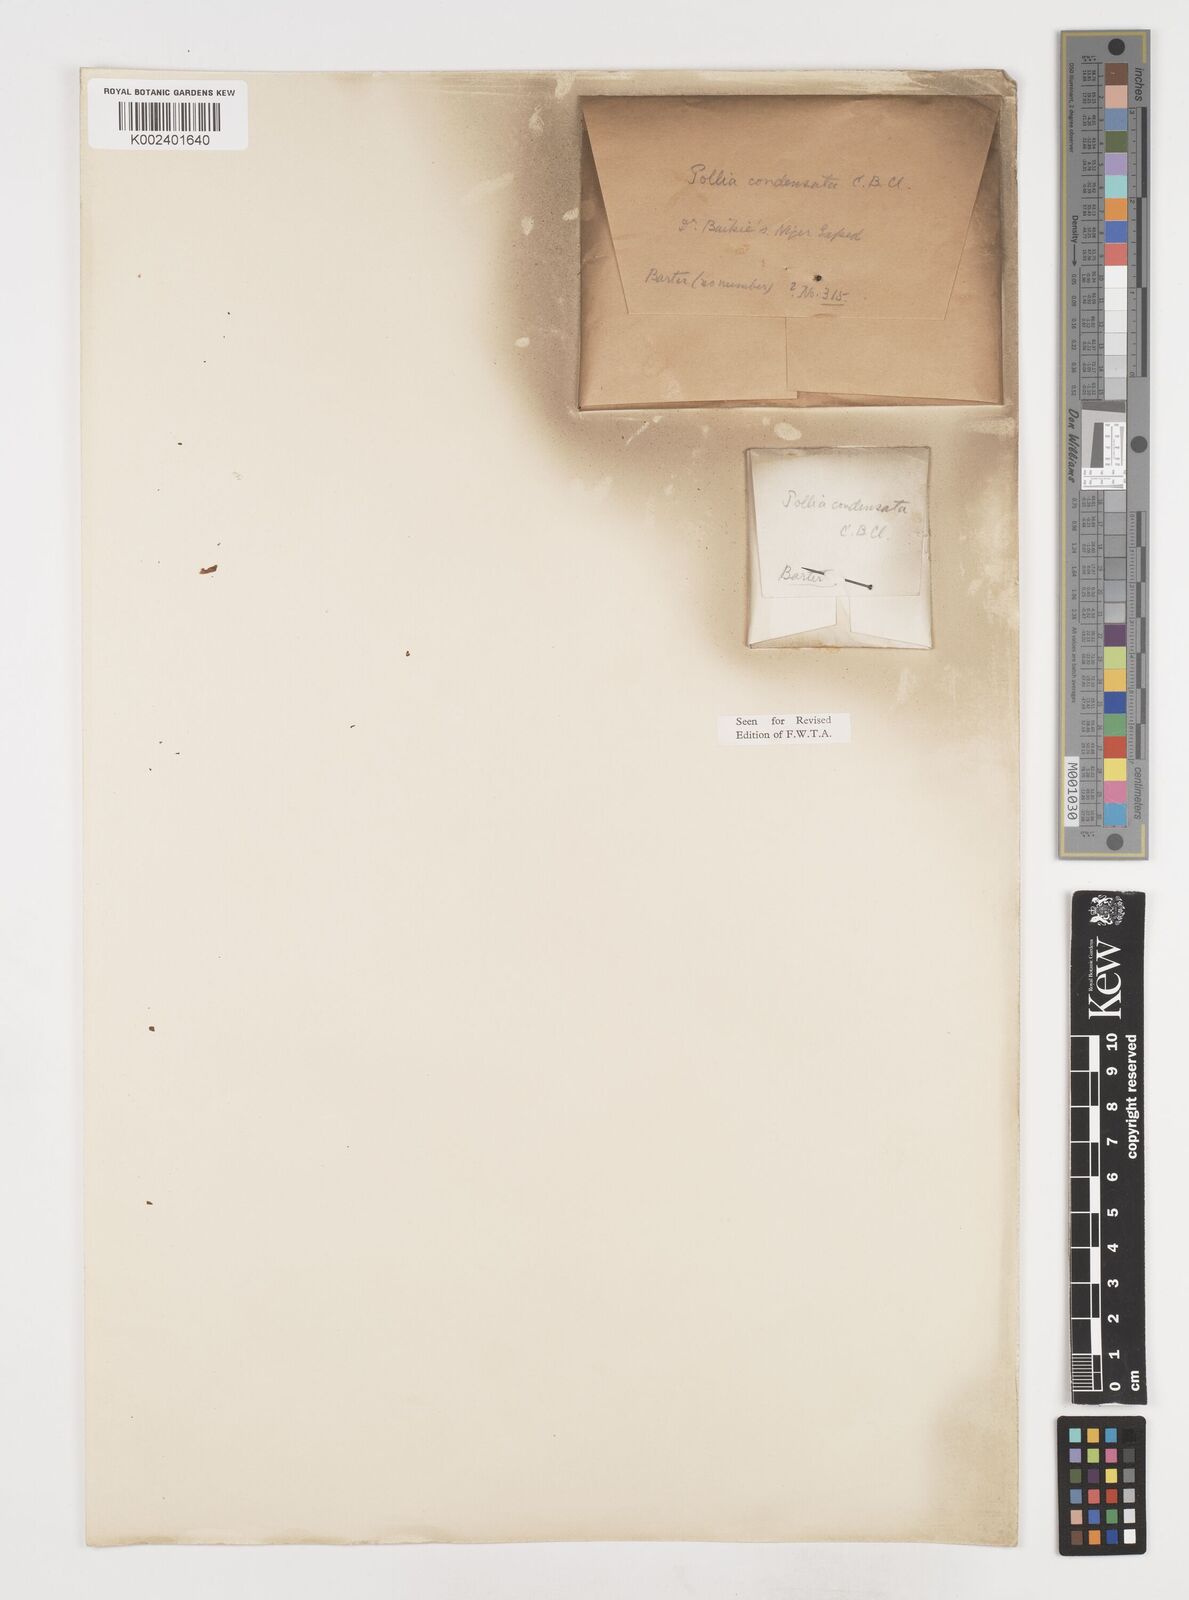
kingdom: Plantae
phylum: Tracheophyta
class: Liliopsida
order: Commelinales
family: Commelinaceae
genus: Pollia
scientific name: Pollia condensata
